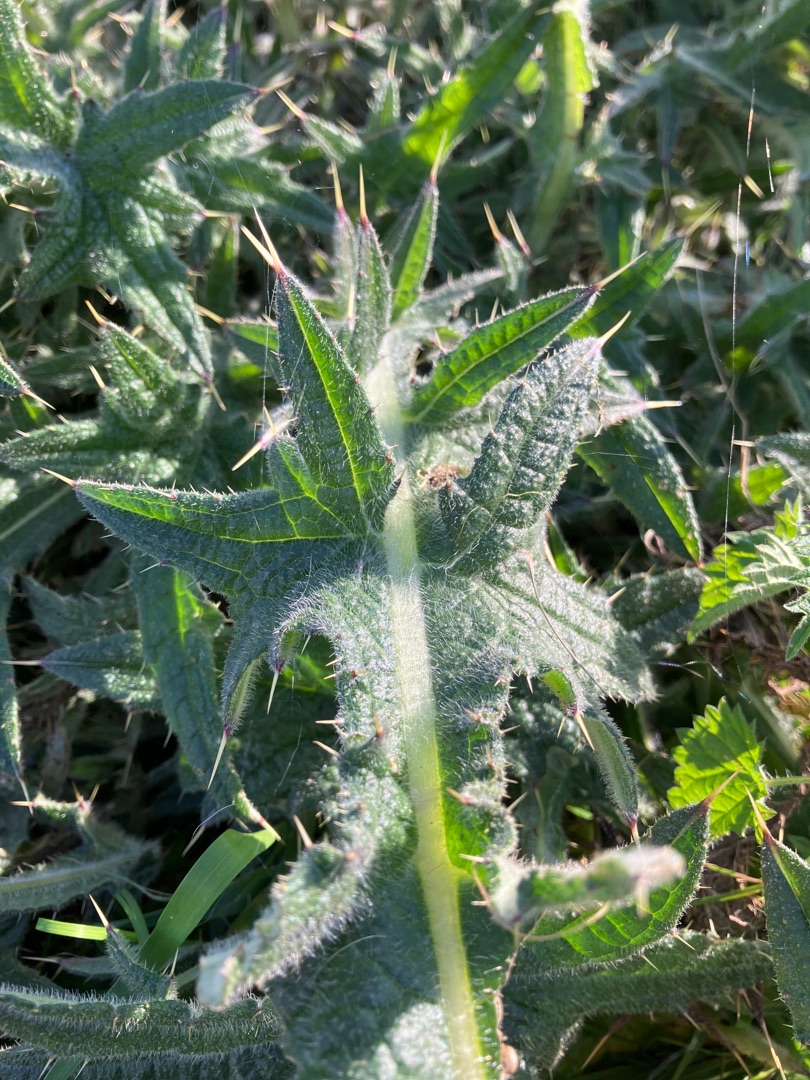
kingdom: Plantae
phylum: Tracheophyta
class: Magnoliopsida
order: Asterales
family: Asteraceae
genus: Cirsium
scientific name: Cirsium vulgare
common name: Horse-tidsel
